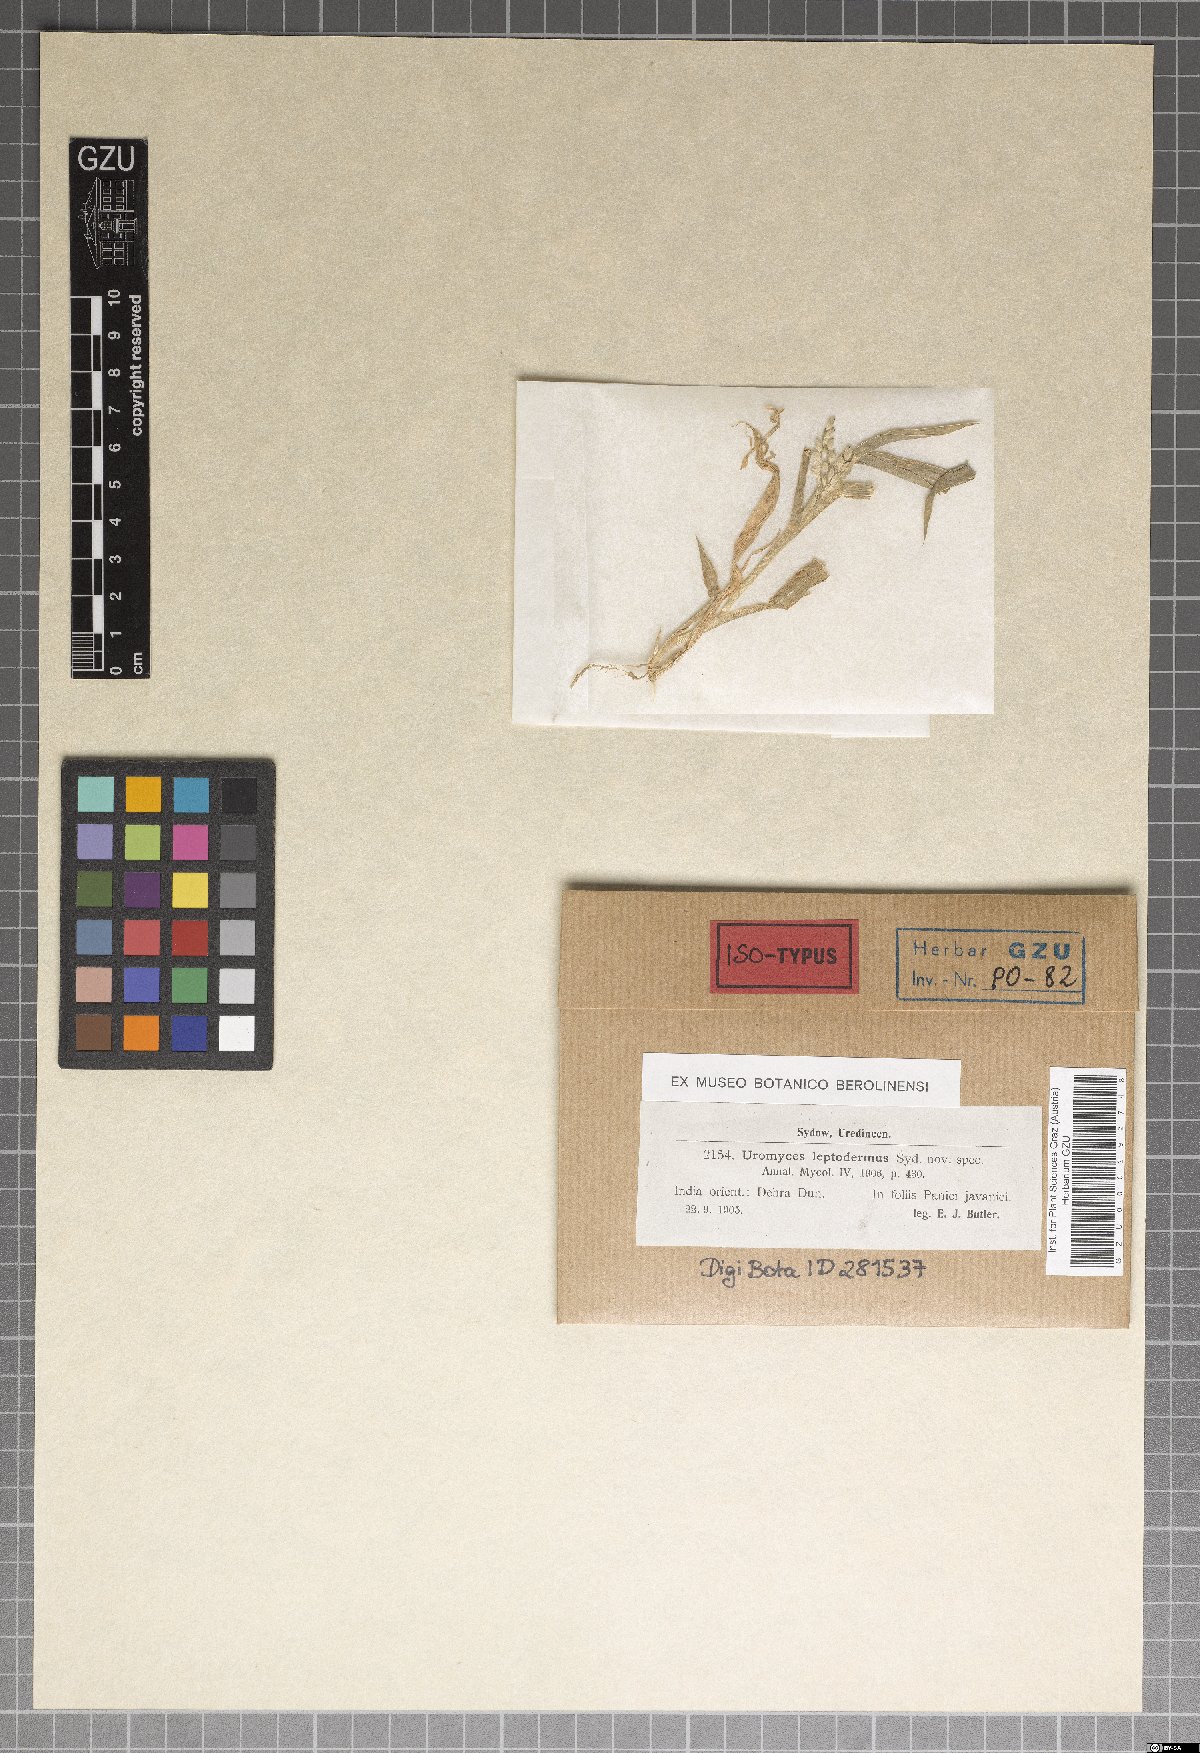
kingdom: Fungi
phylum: Basidiomycota
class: Pucciniomycetes
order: Pucciniales
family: Pucciniaceae
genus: Uromyces
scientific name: Uromyces setariae-italicae
